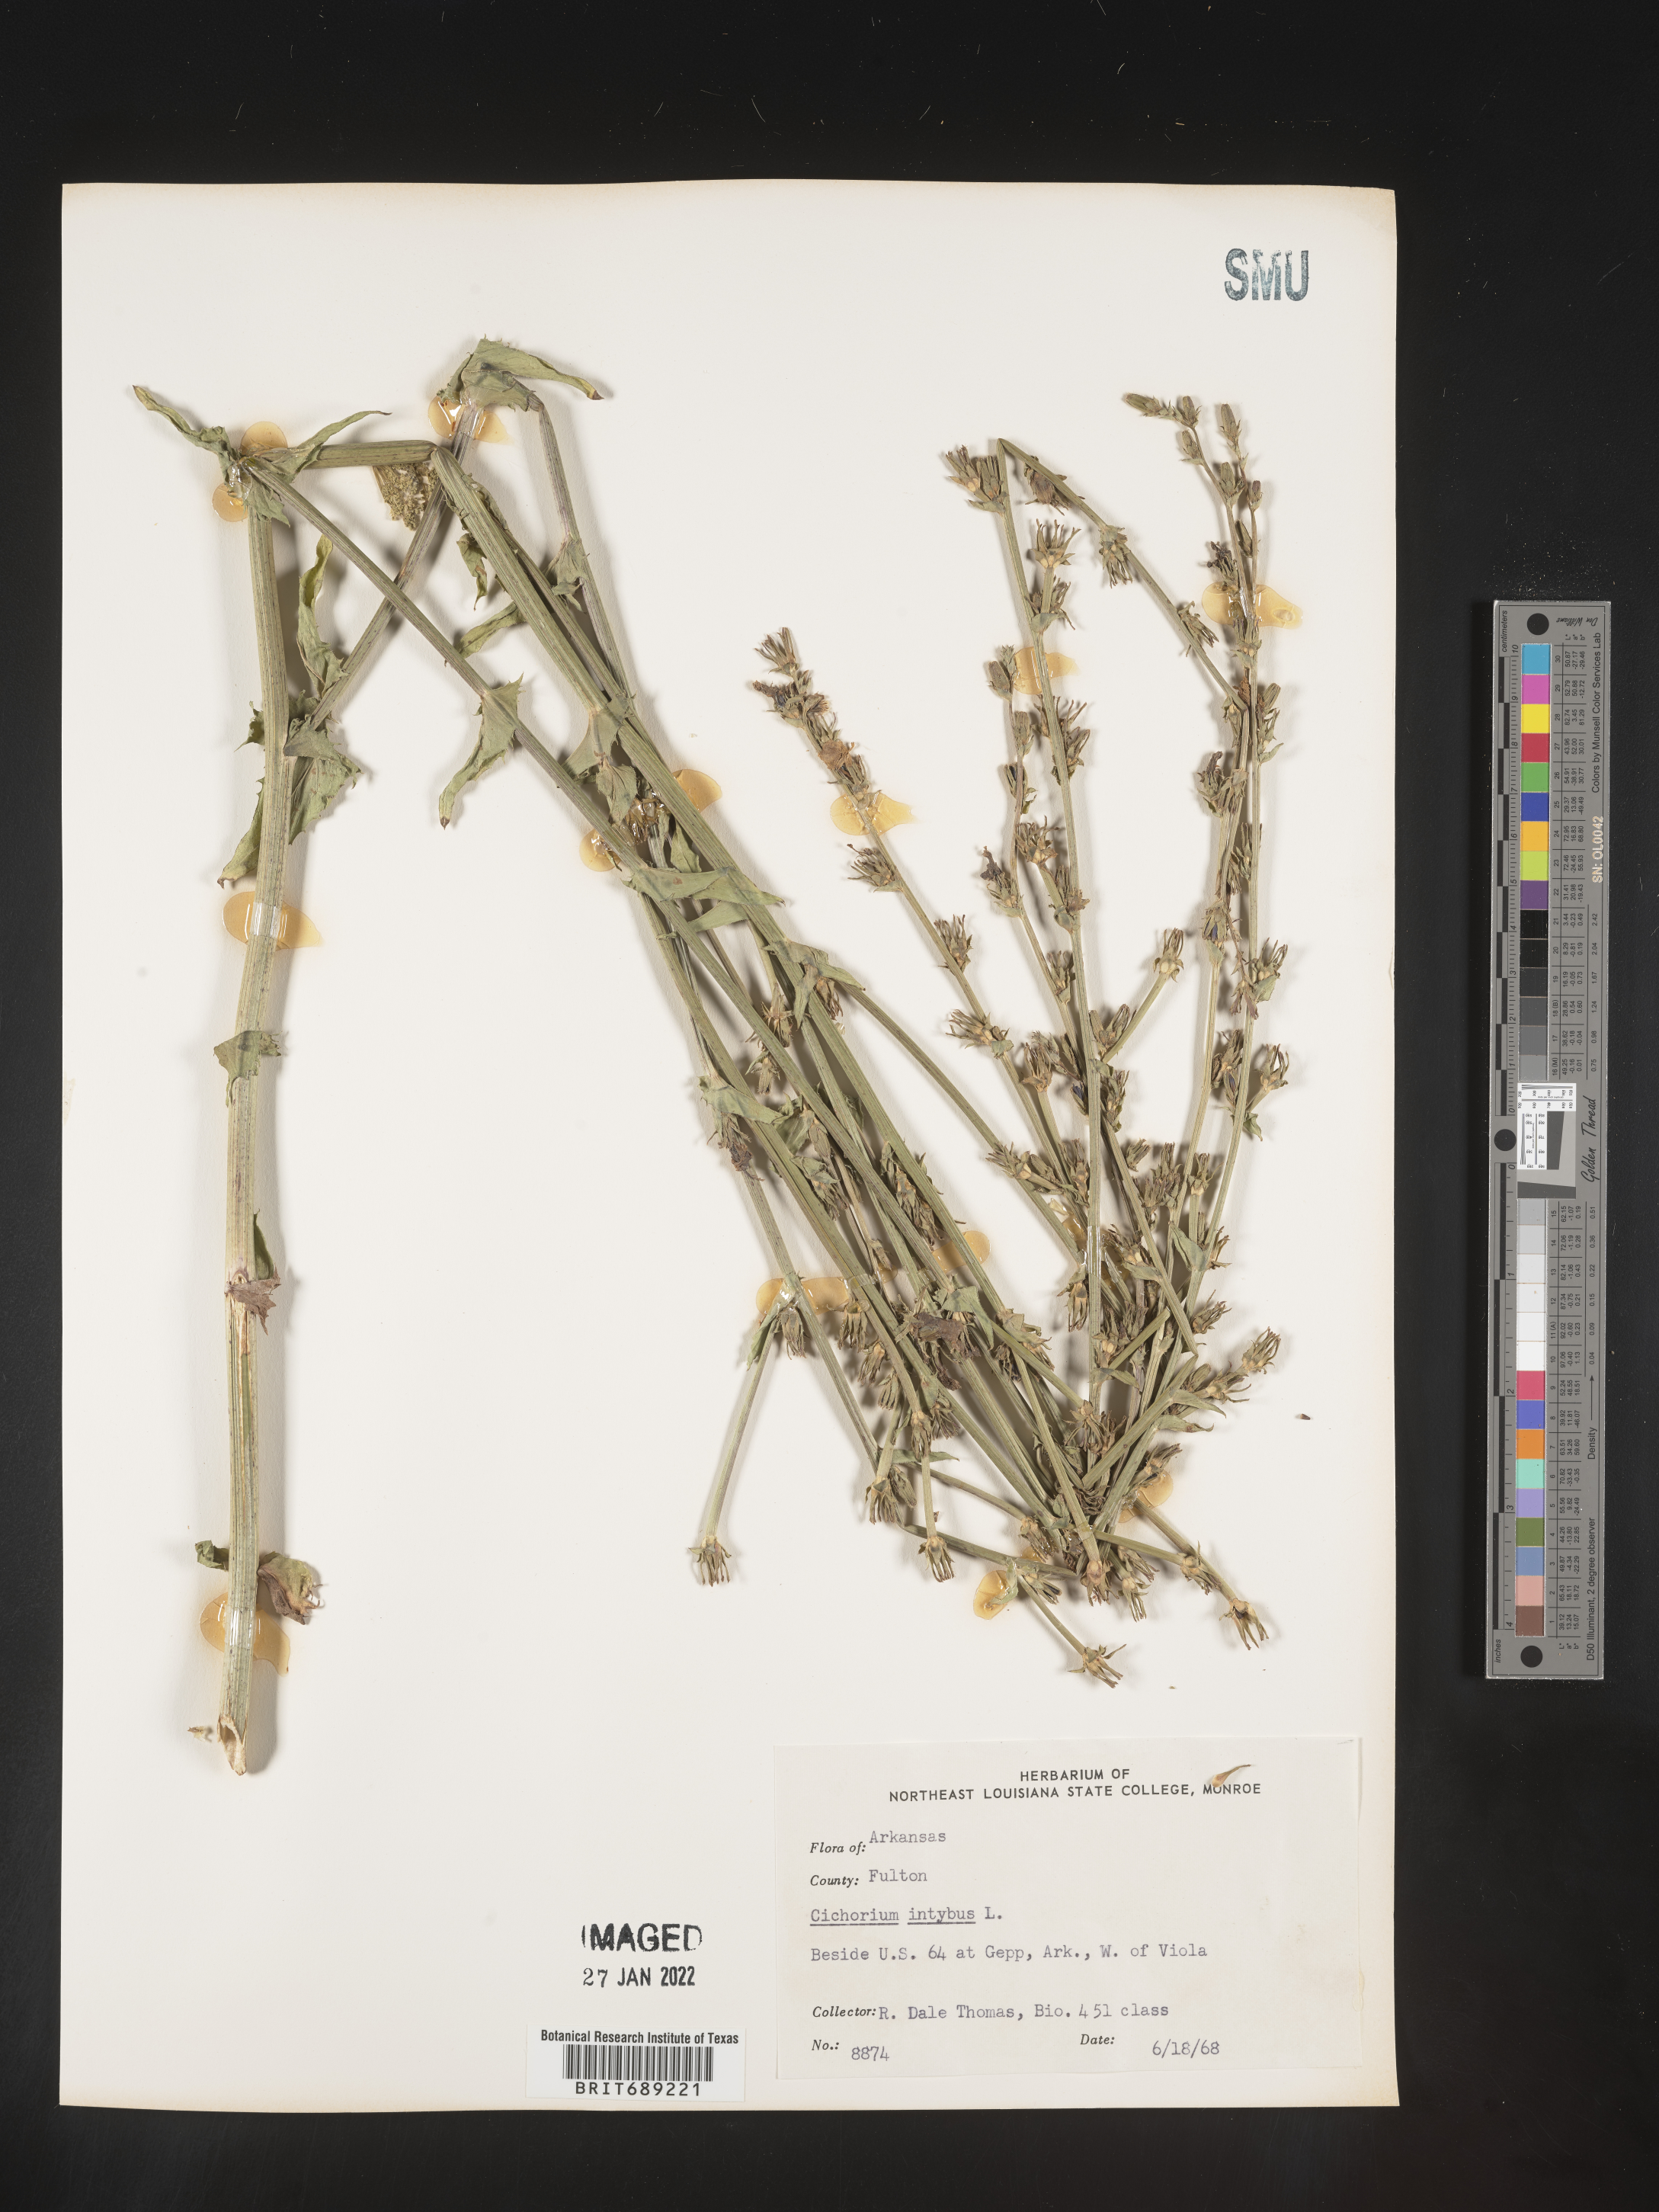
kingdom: Plantae
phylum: Tracheophyta
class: Magnoliopsida
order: Asterales
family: Asteraceae
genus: Cichorium
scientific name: Cichorium intybus
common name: Chicory
